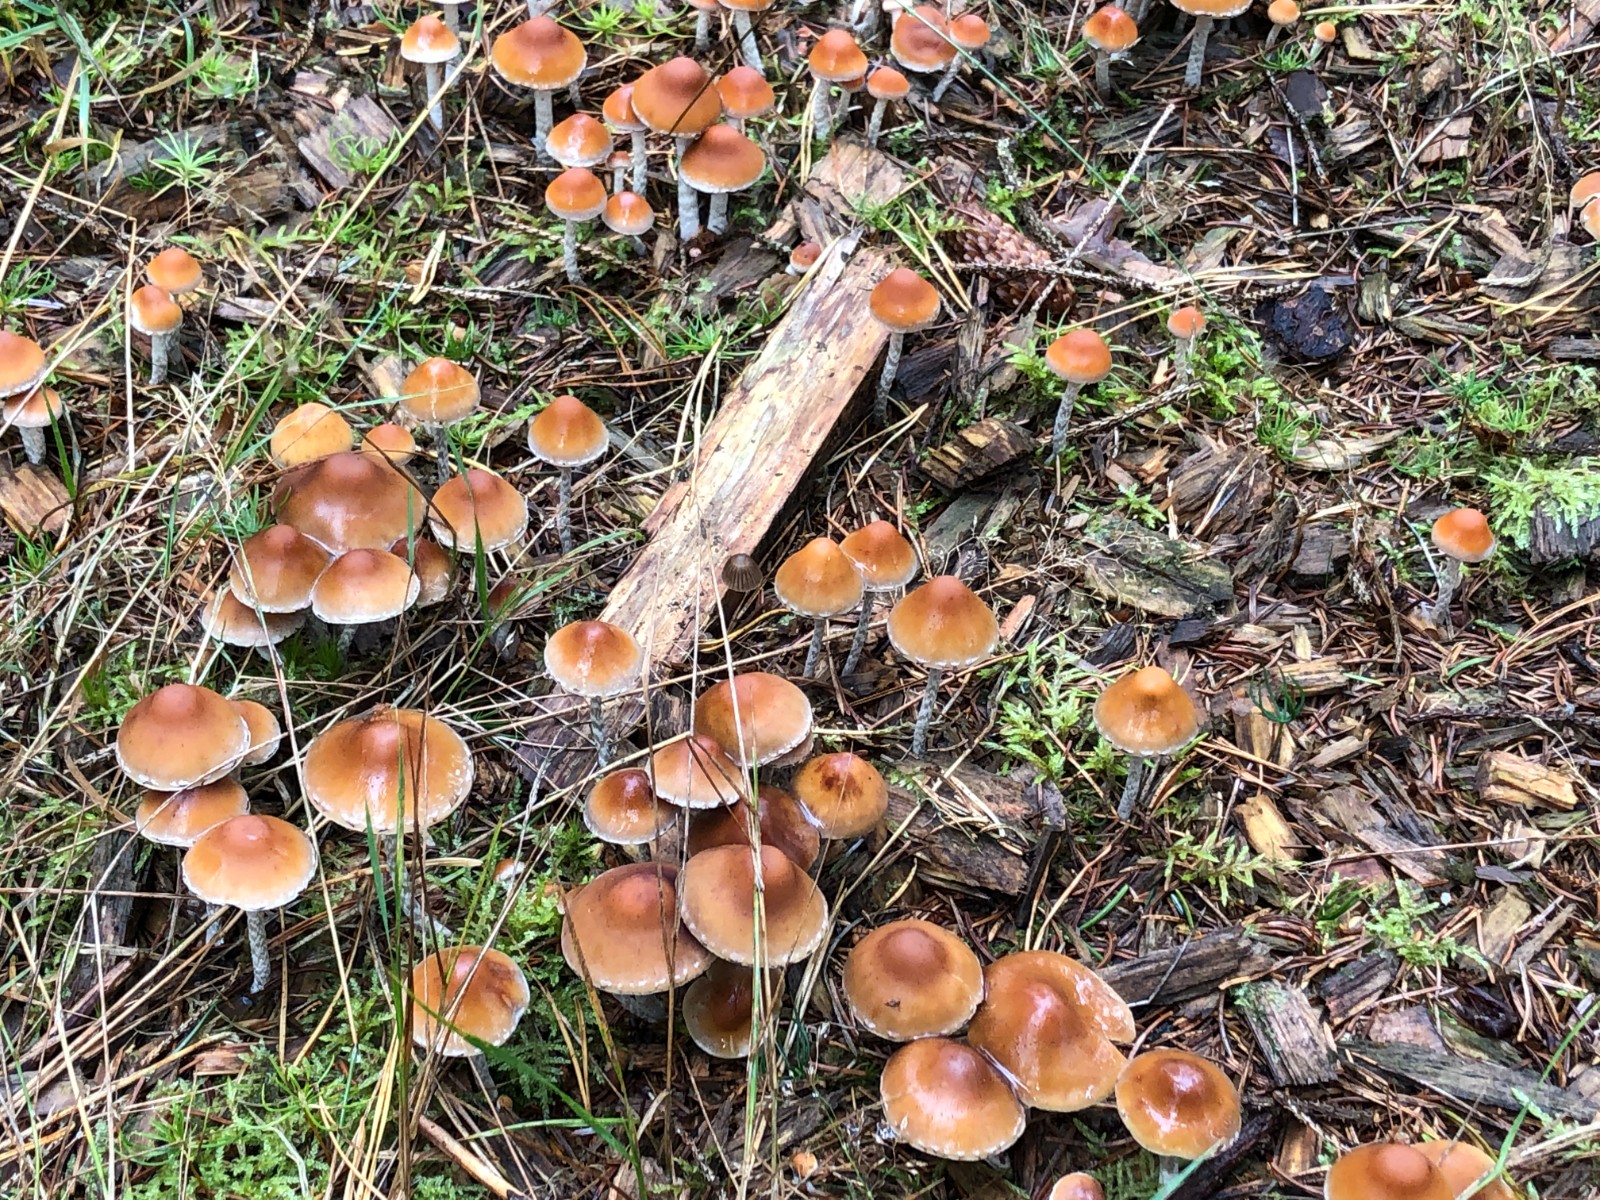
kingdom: Fungi
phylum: Basidiomycota
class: Agaricomycetes
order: Agaricales
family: Strophariaceae
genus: Hypholoma
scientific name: Hypholoma marginatum
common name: enlig svovlhat
